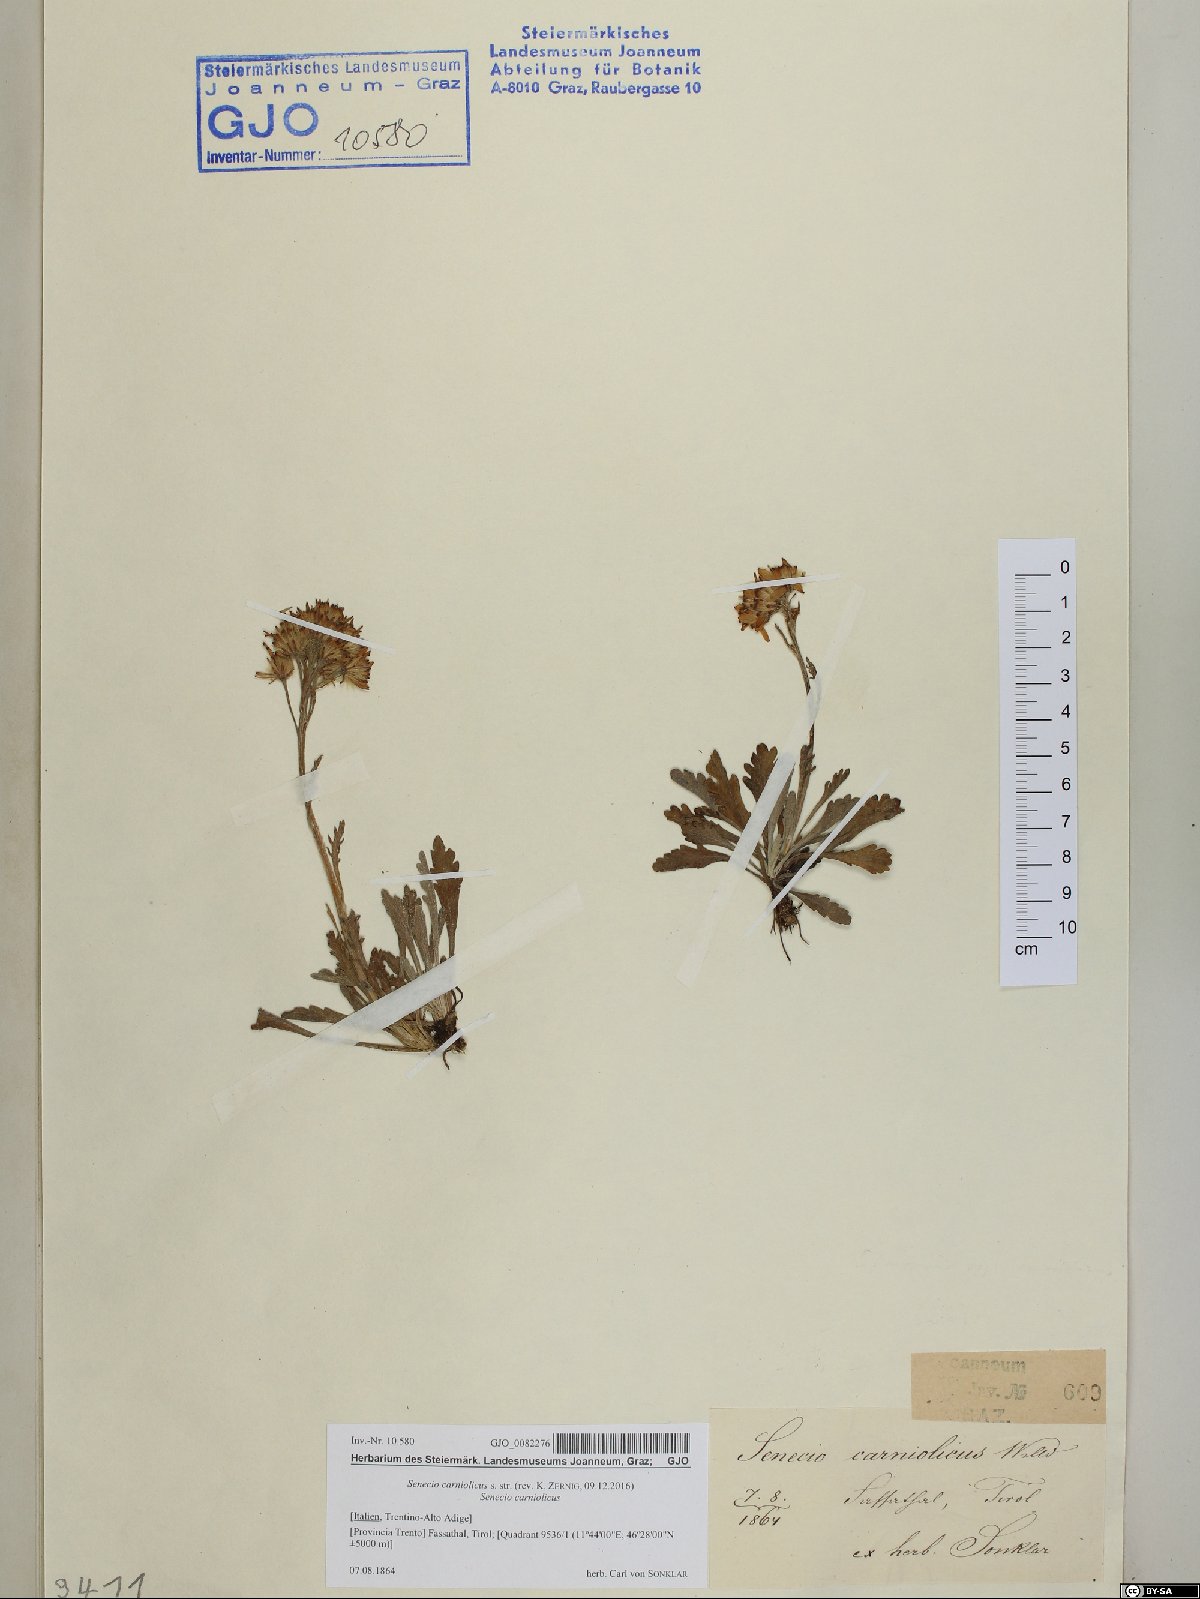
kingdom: Plantae
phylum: Tracheophyta
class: Magnoliopsida
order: Asterales
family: Asteraceae
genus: Jacobaea
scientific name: Jacobaea carniolica
